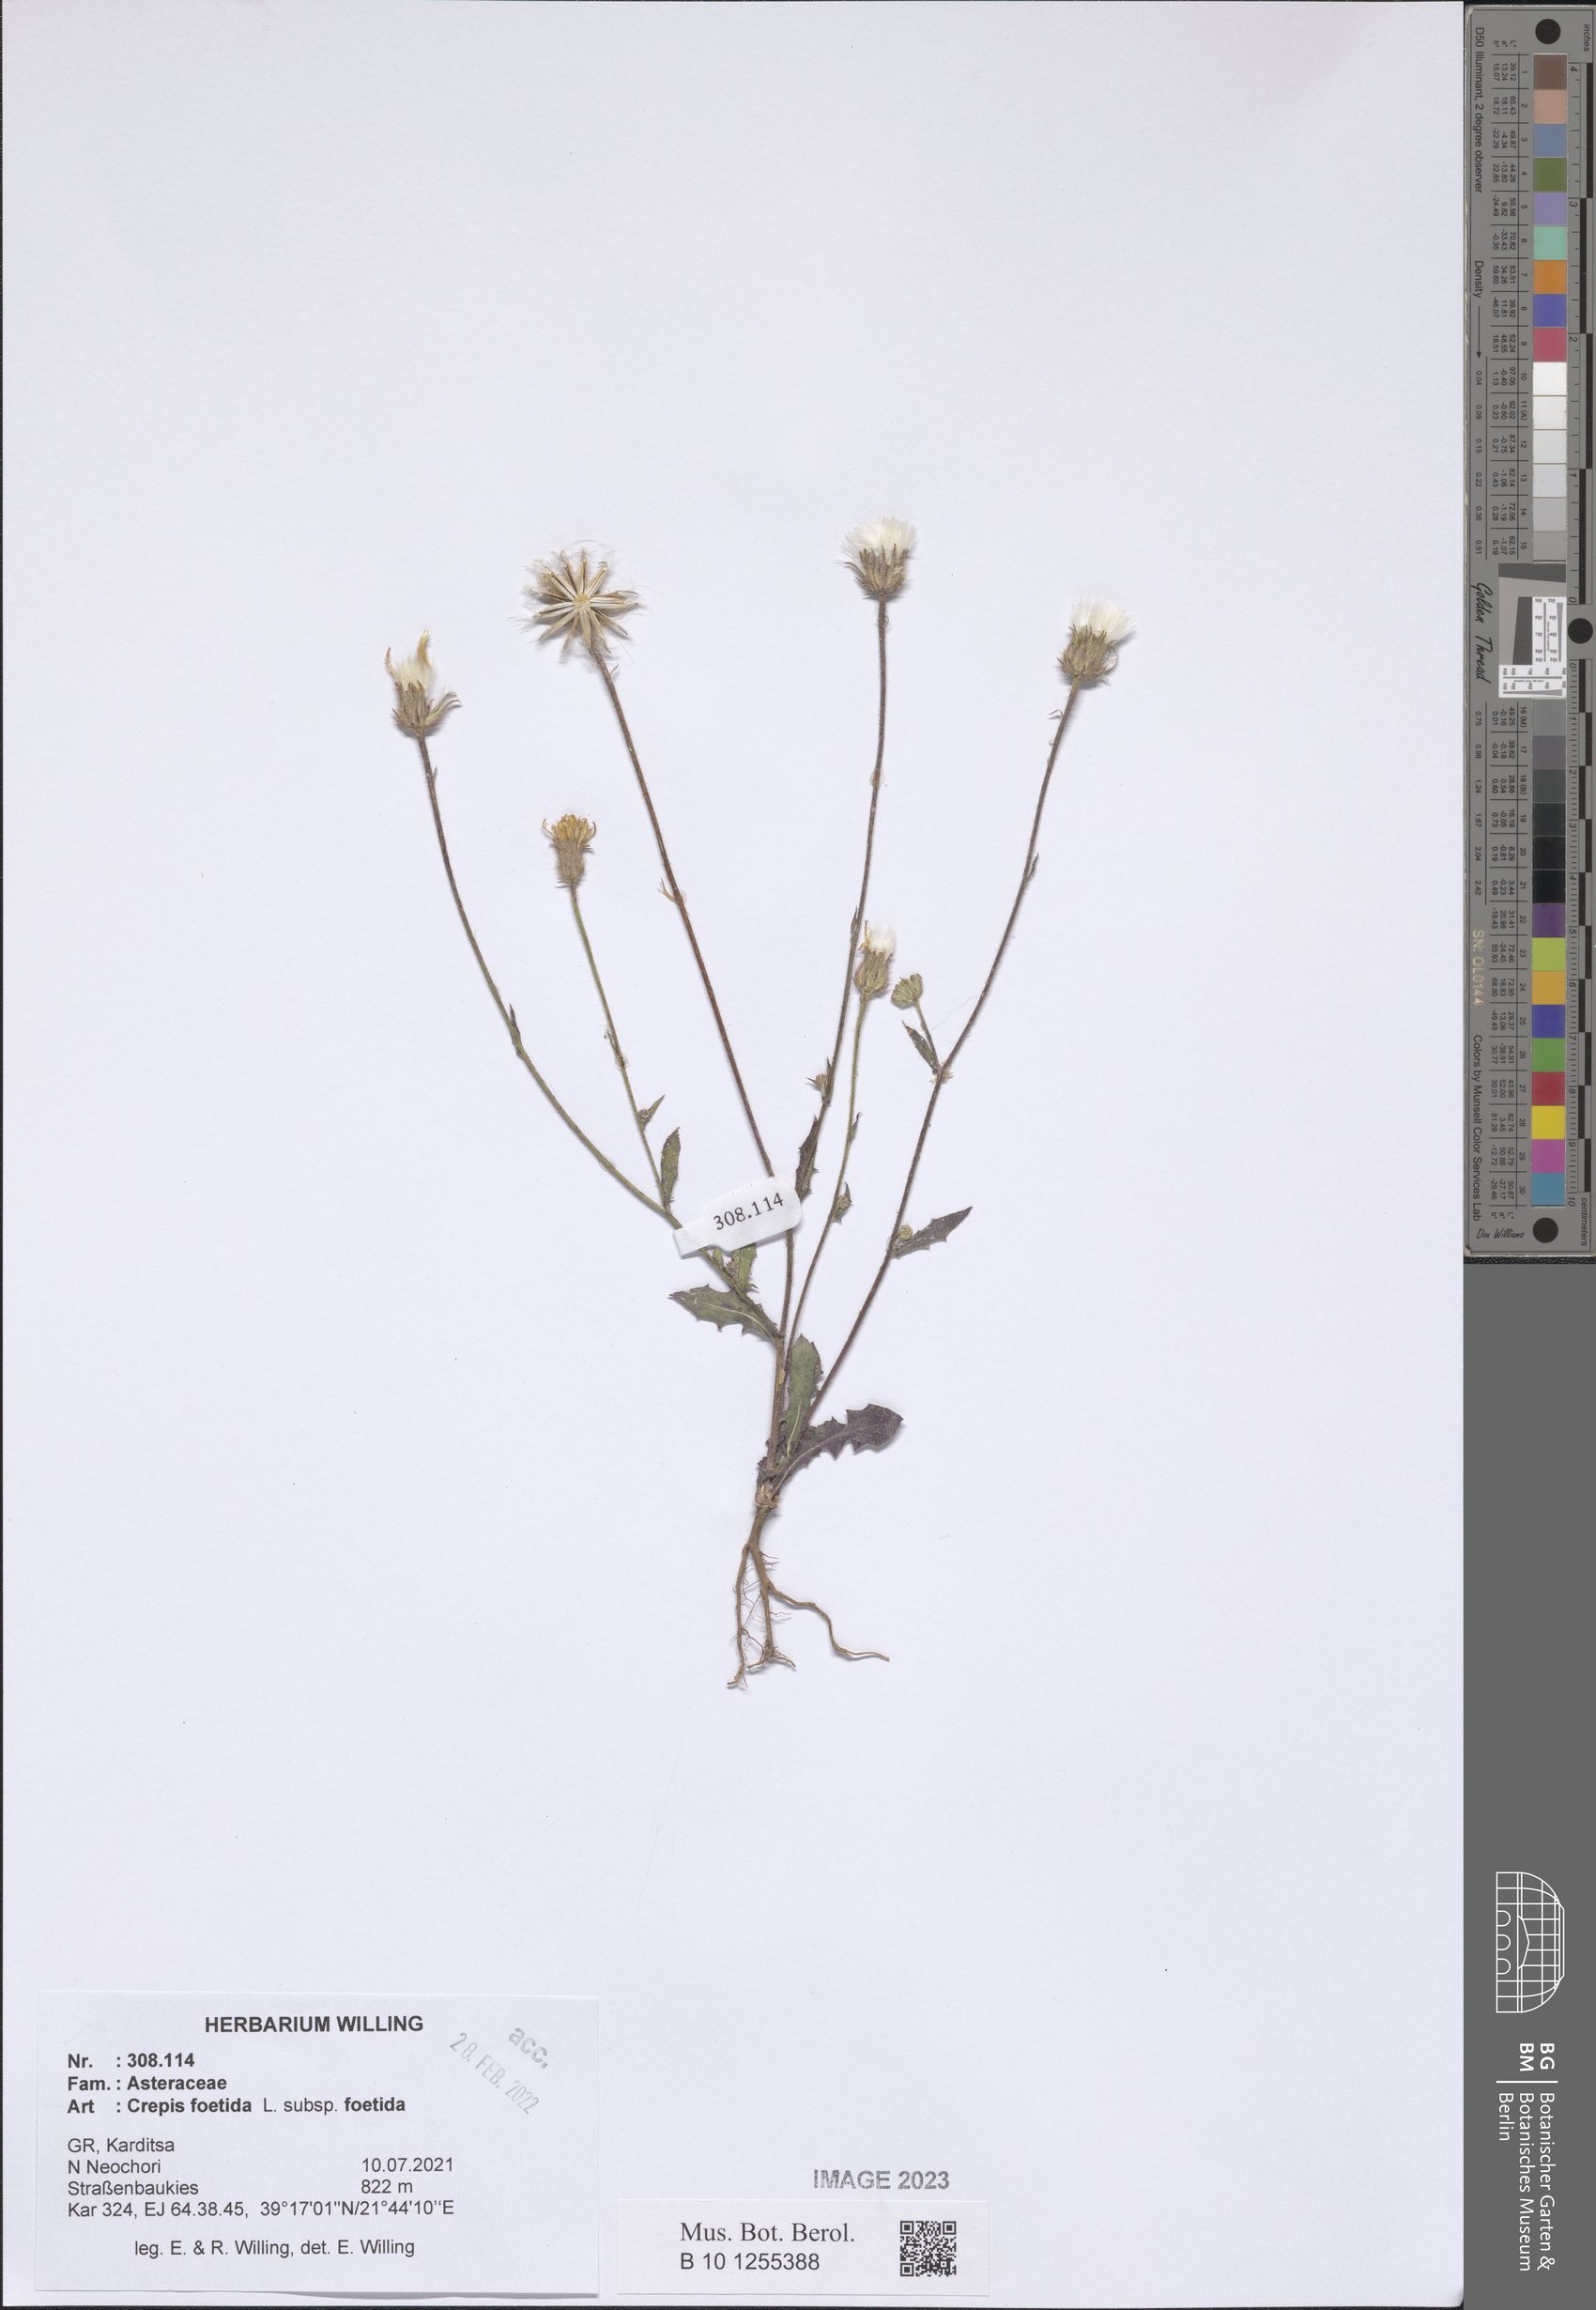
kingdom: Plantae
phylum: Tracheophyta
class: Magnoliopsida
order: Asterales
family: Asteraceae
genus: Crepis
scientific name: Crepis foetida
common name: Stinking hawk's-beard
